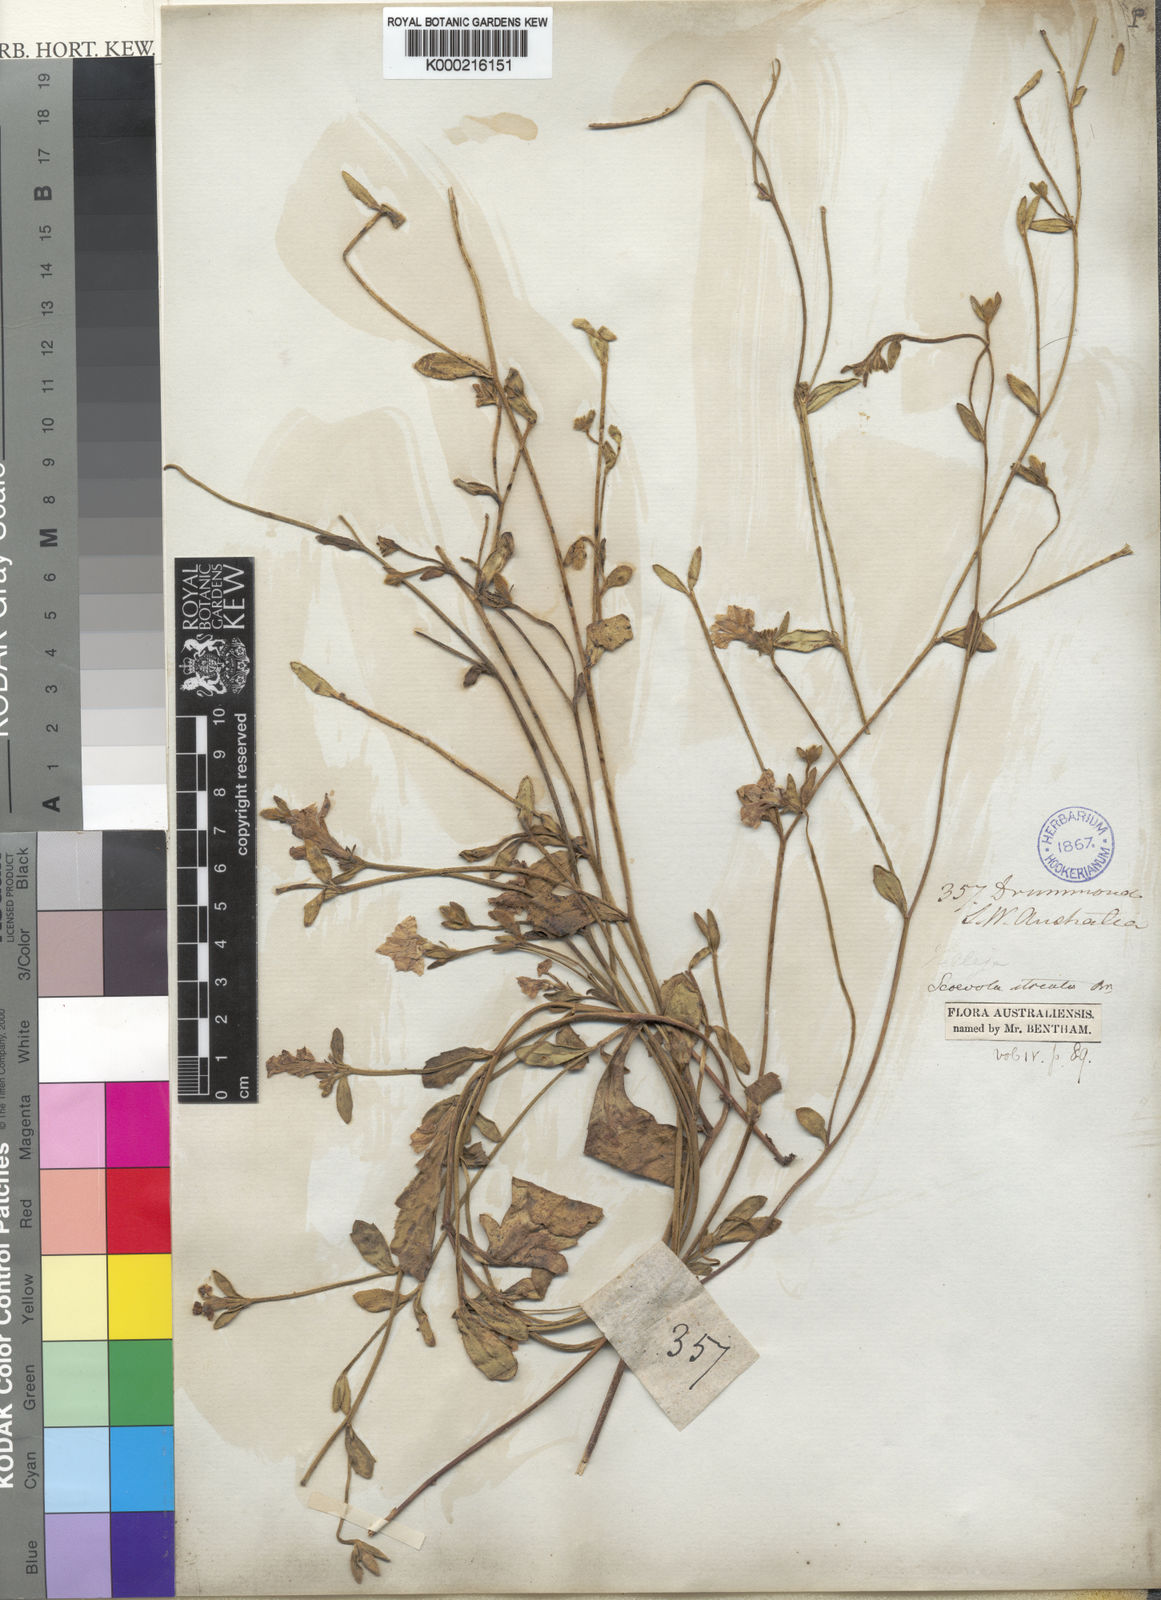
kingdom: Plantae
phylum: Tracheophyta
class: Magnoliopsida
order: Asterales
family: Goodeniaceae
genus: Scaevola
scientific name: Scaevola striata
